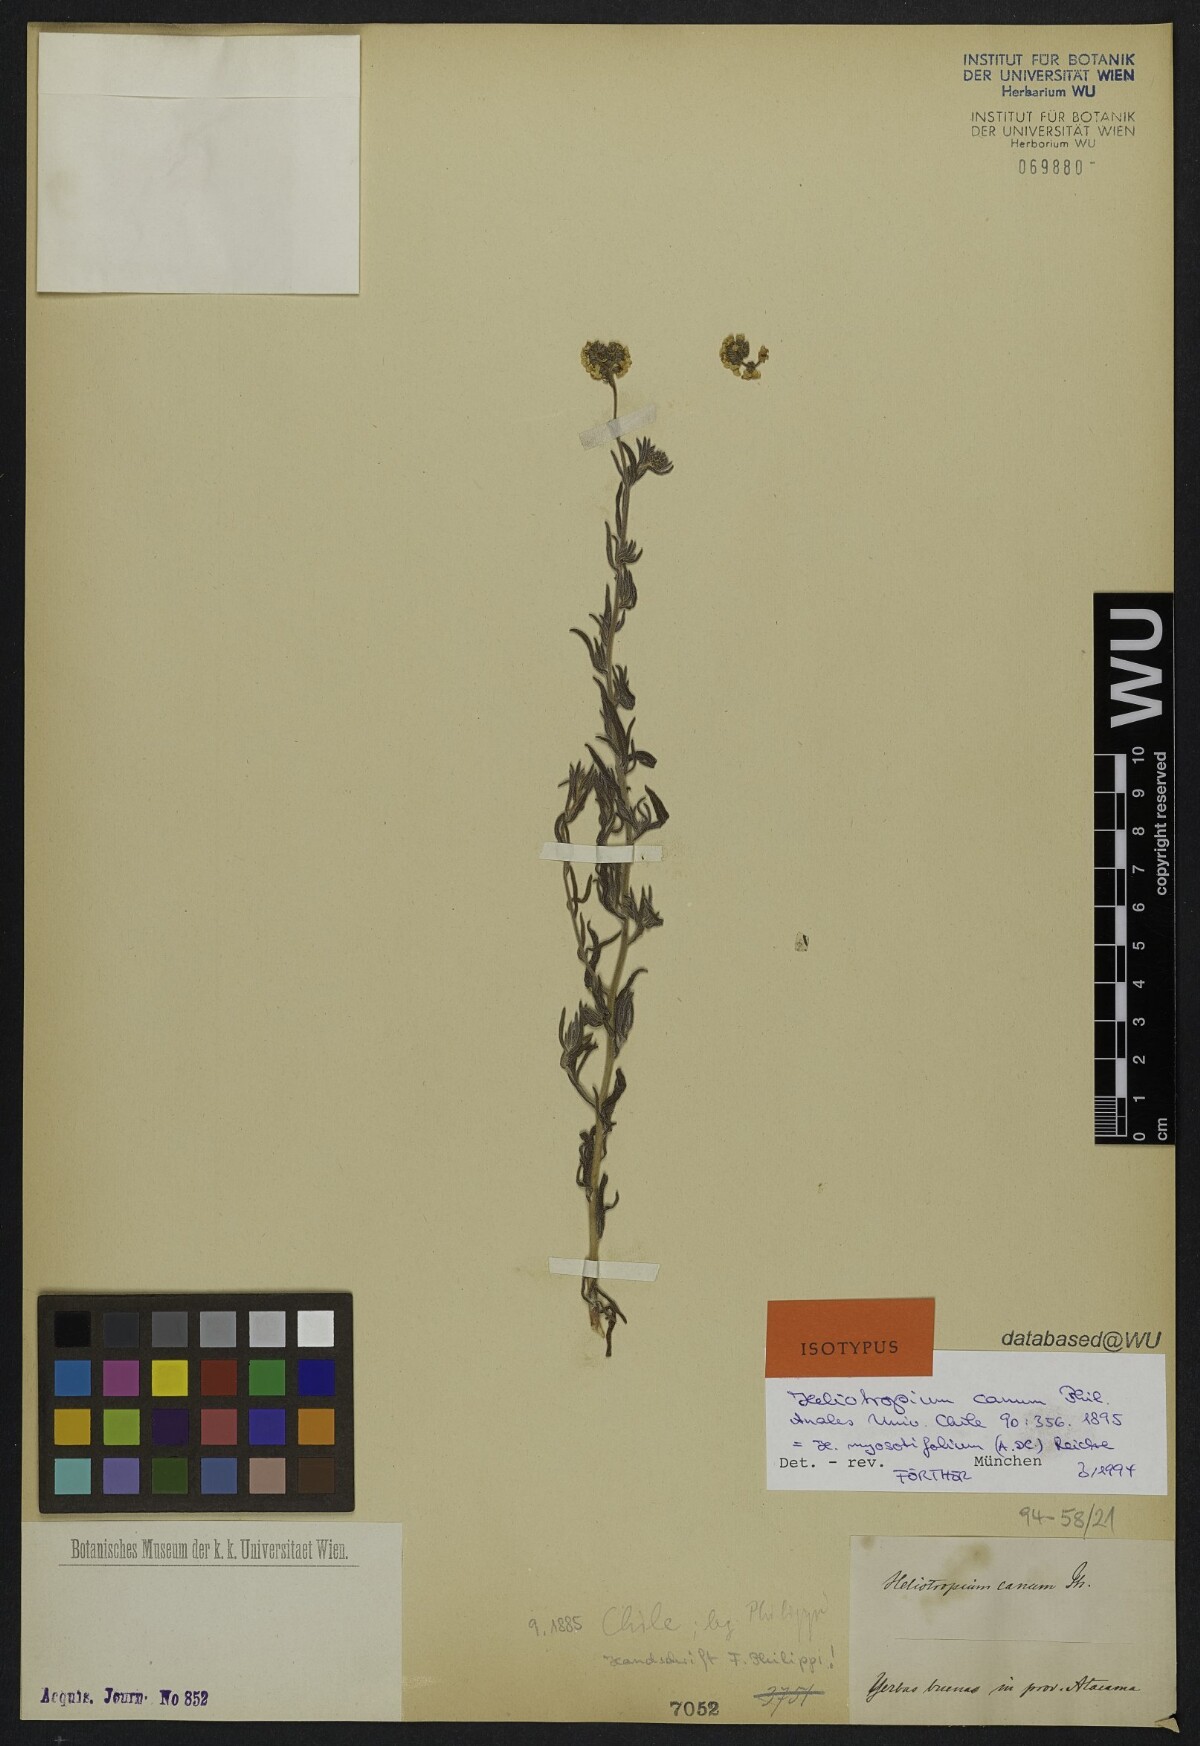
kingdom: Plantae
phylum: Tracheophyta
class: Magnoliopsida
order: Boraginales
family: Heliotropiaceae
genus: Heliotropium
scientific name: Heliotropium myosotifolium
